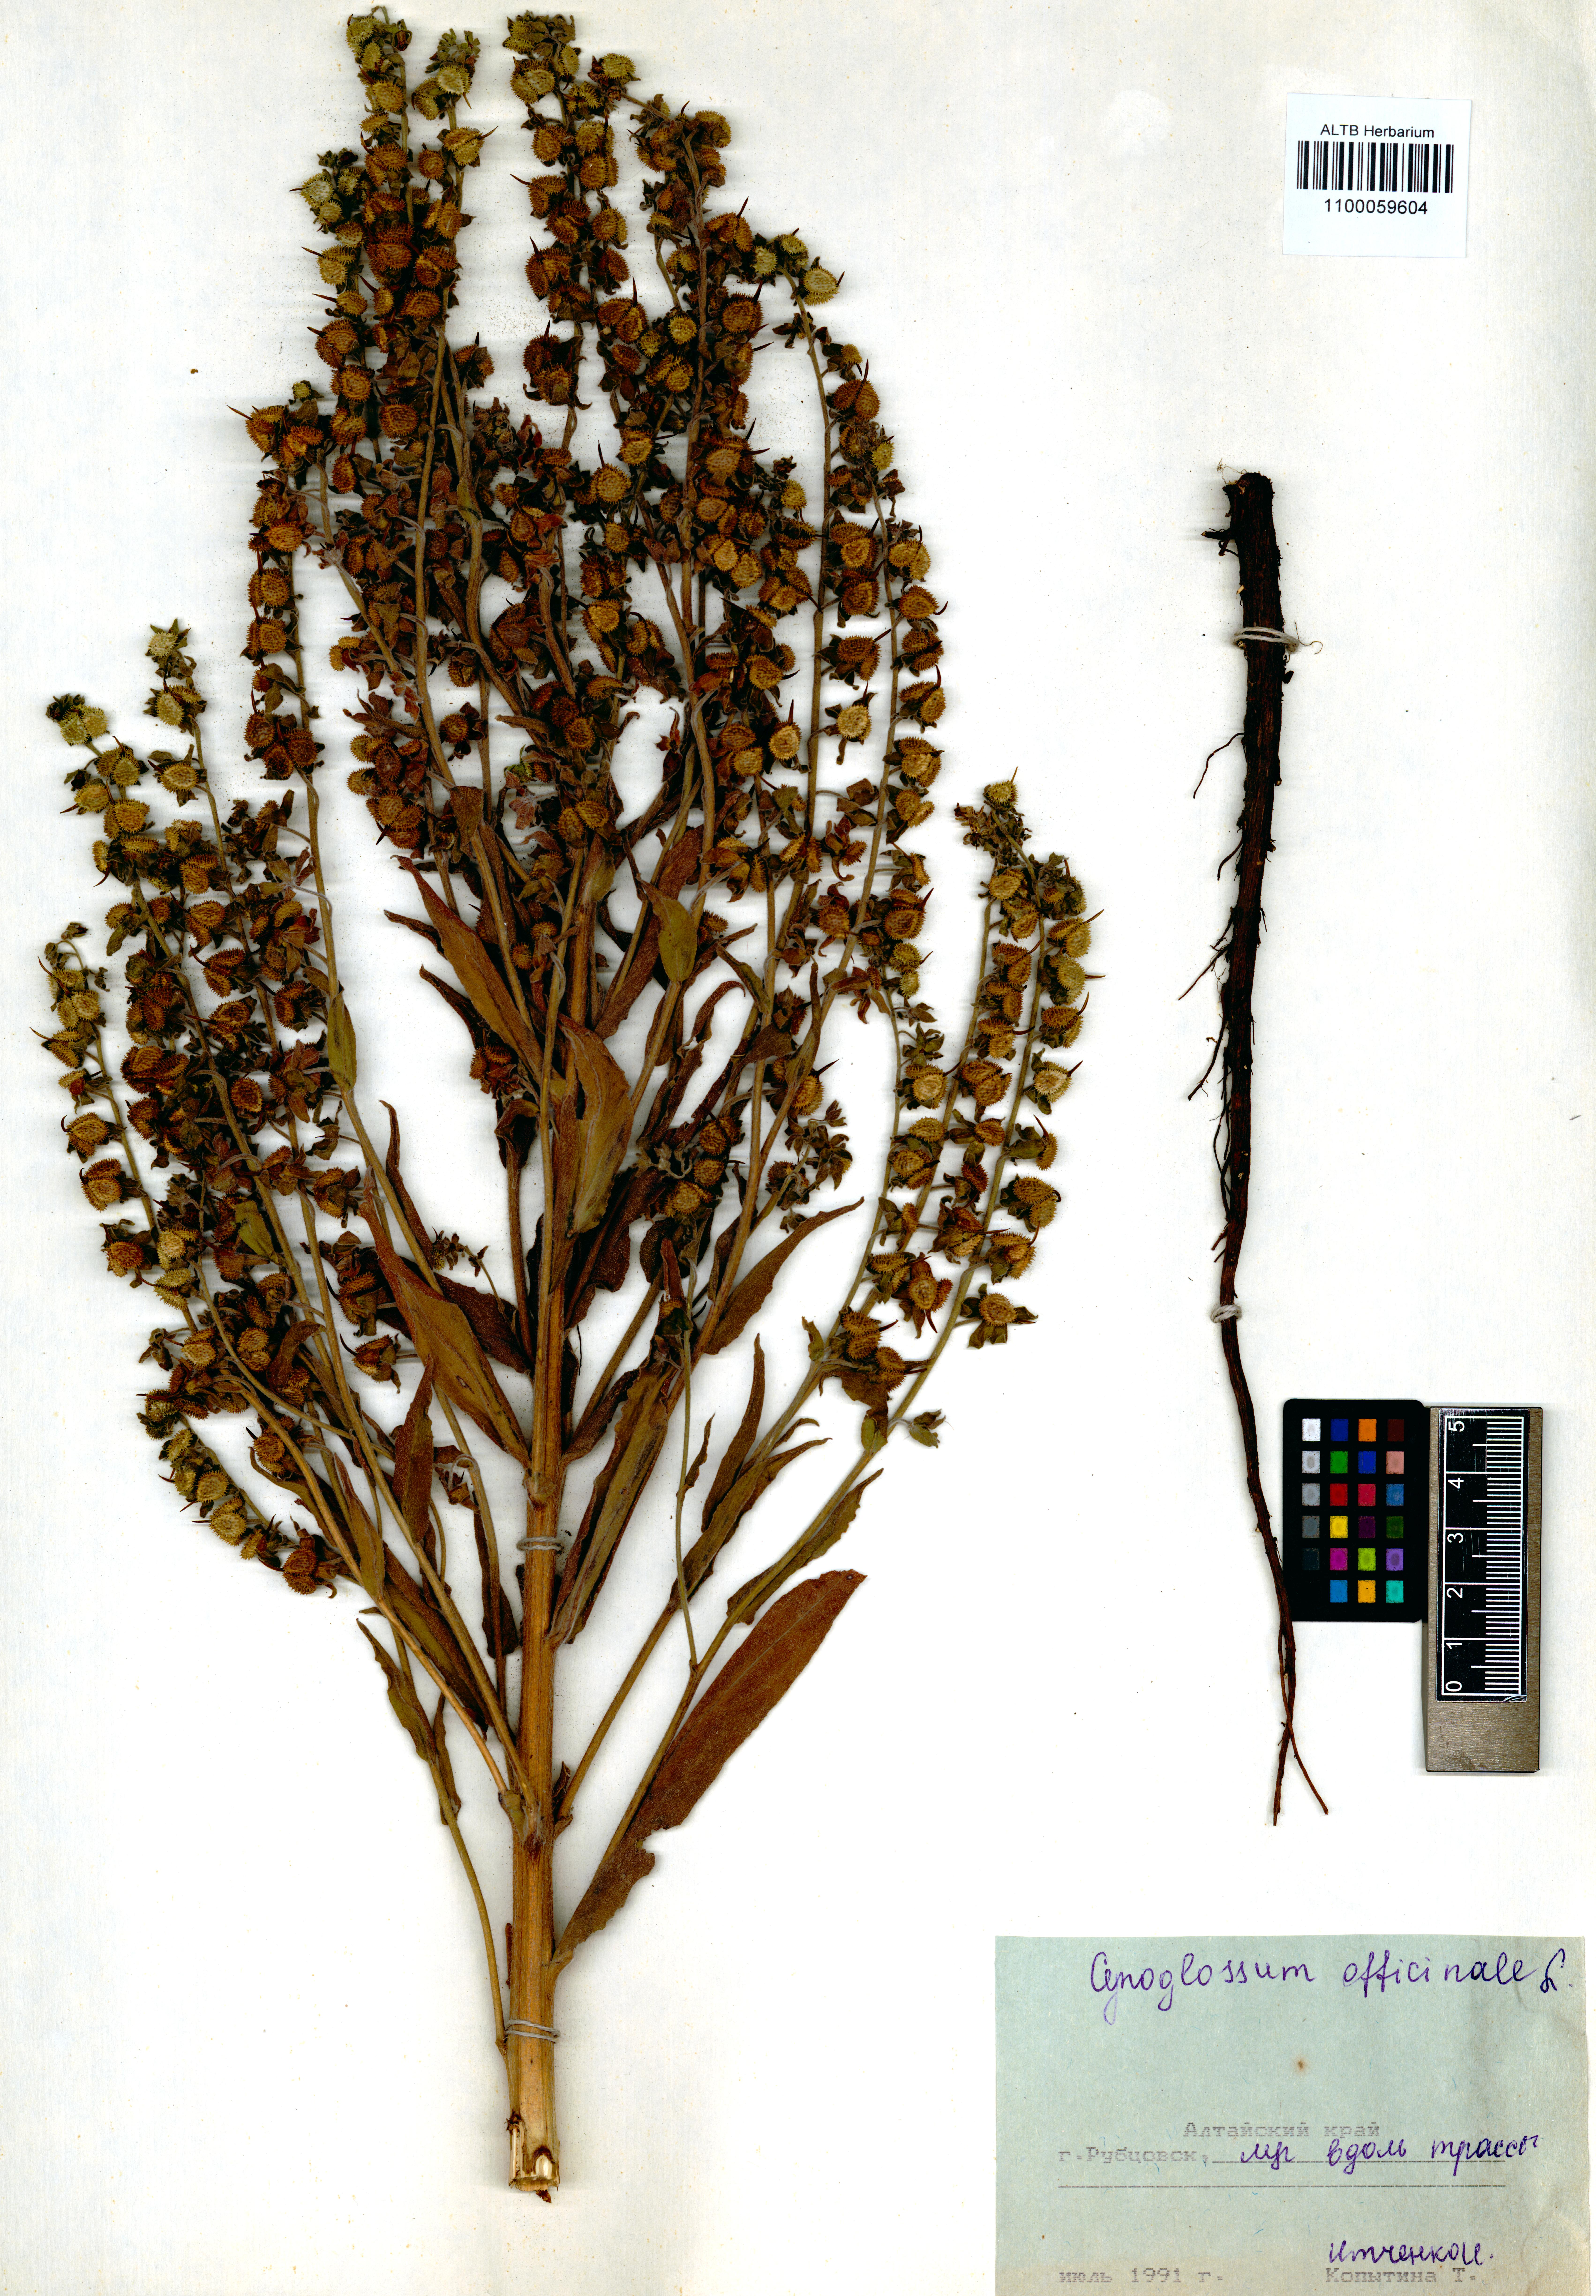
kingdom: Plantae
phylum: Tracheophyta
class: Magnoliopsida
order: Boraginales
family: Boraginaceae
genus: Cynoglossum
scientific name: Cynoglossum officinale
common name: Hound's-tongue
